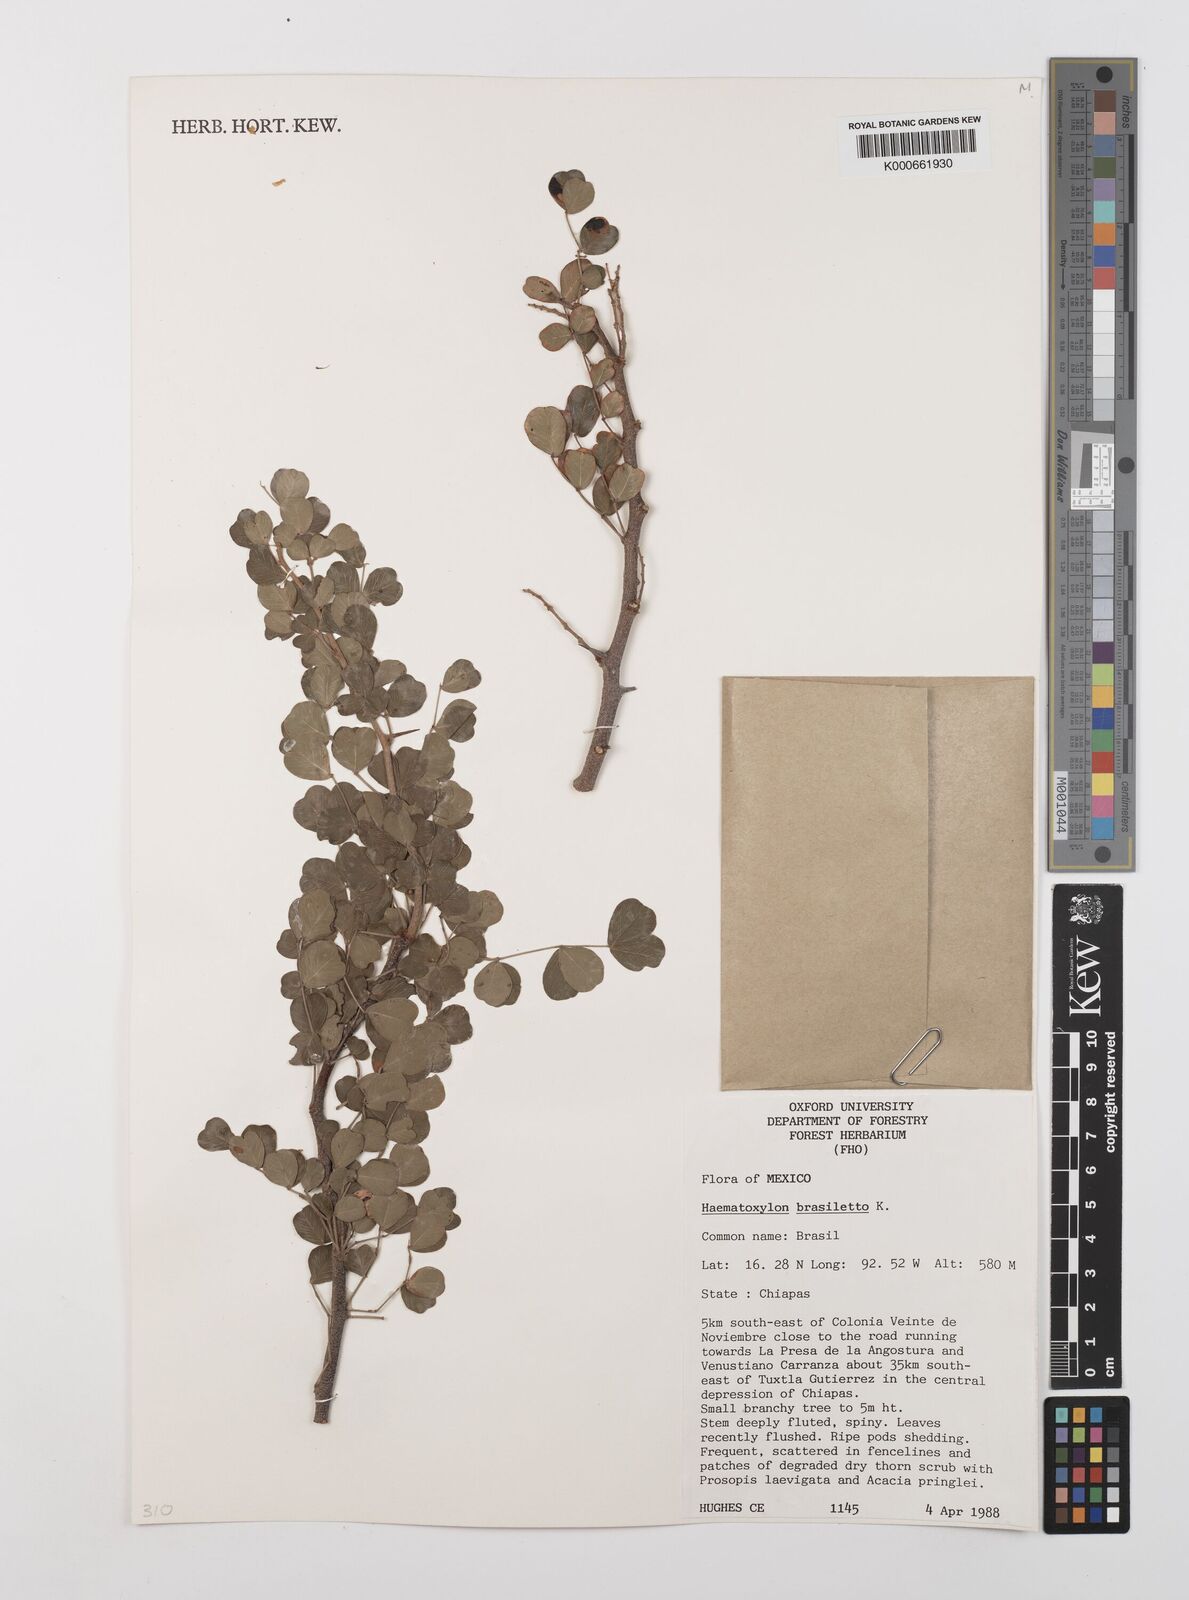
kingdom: Plantae
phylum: Tracheophyta
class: Magnoliopsida
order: Fabales
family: Fabaceae
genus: Haematoxylum
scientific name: Haematoxylum brasiletto
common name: Peachwood
